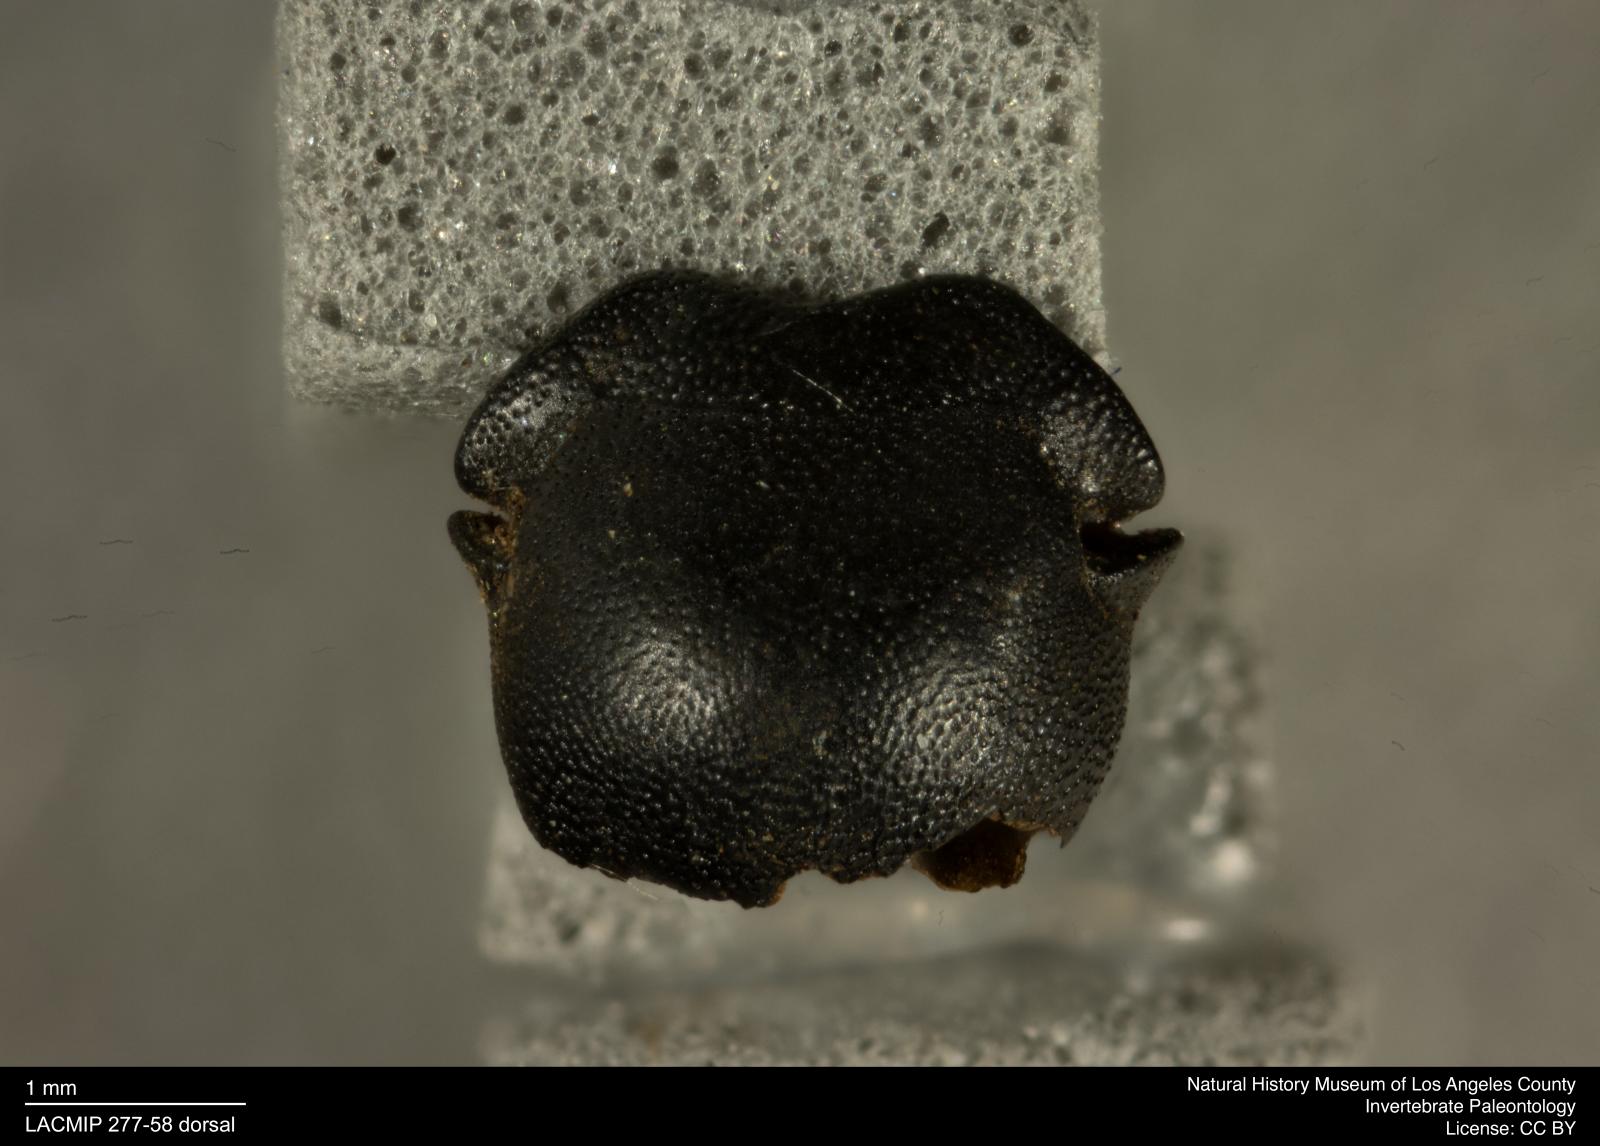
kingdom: Animalia
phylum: Arthropoda
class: Insecta
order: Coleoptera
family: Tenebrionidae
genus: Coniontis
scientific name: Coniontis abdominalis
